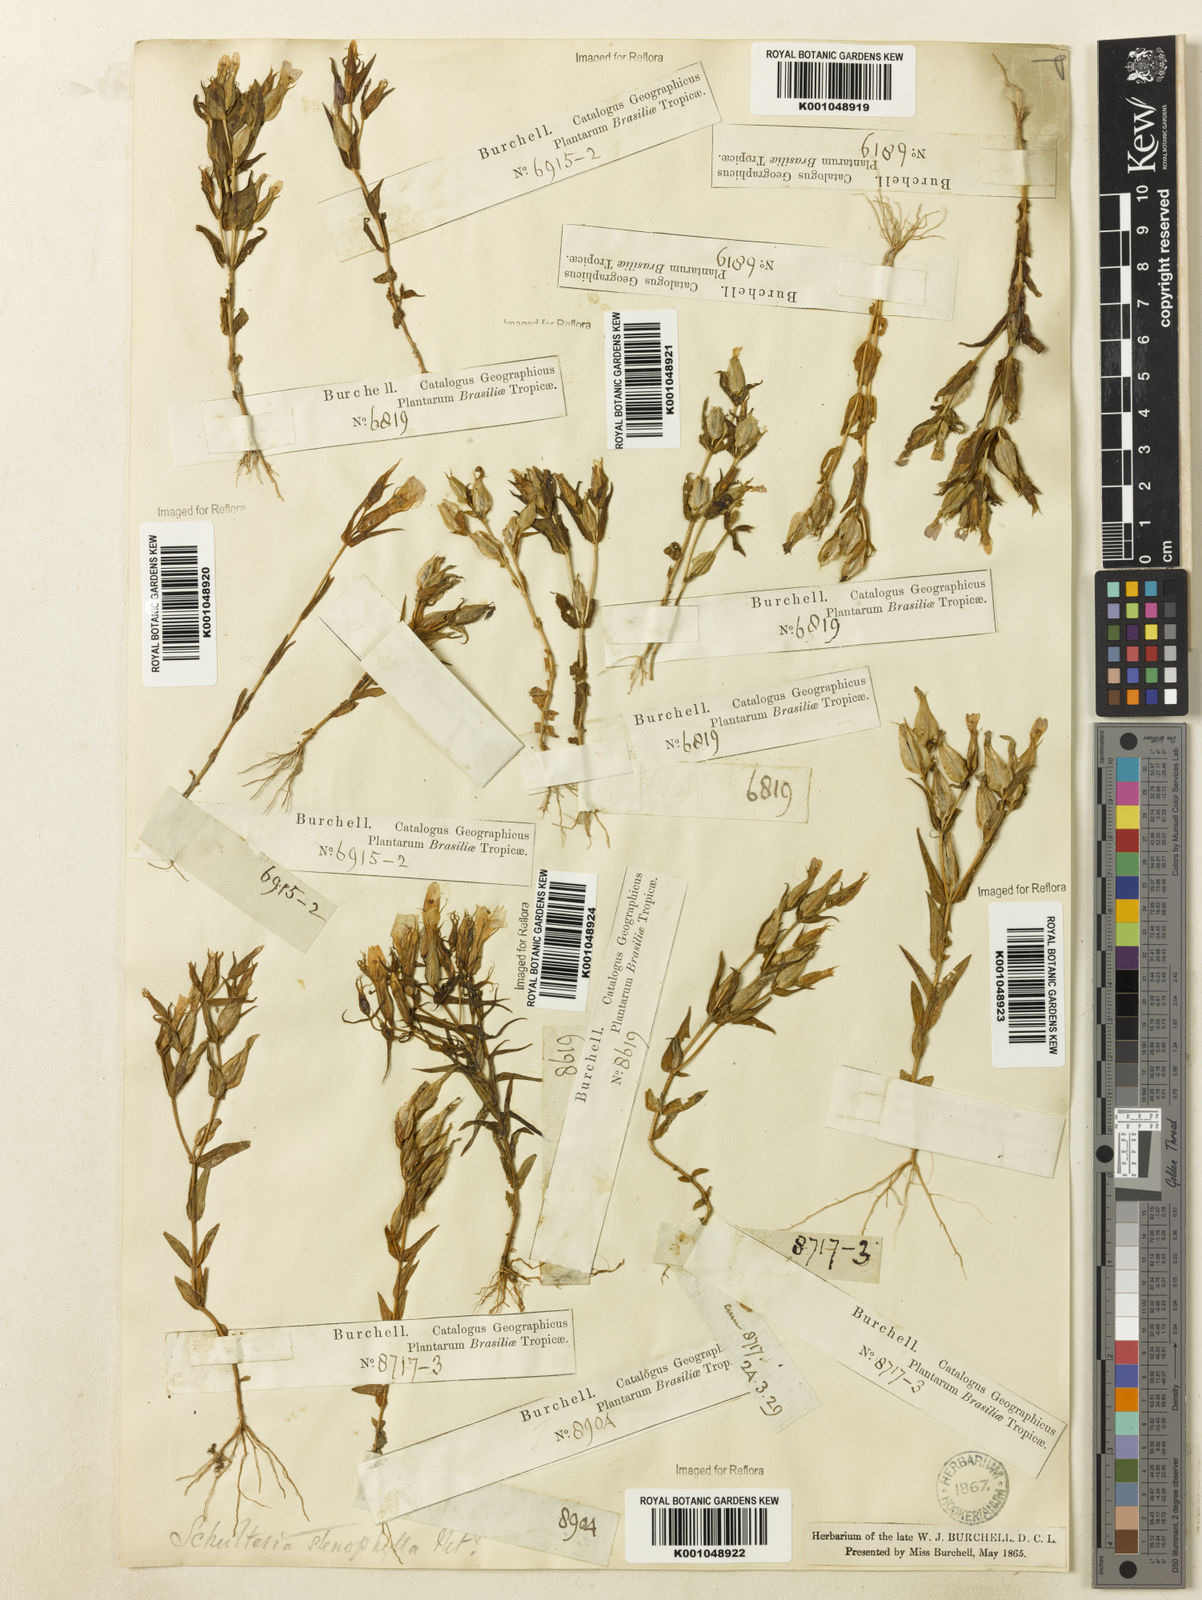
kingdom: Plantae
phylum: Tracheophyta
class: Magnoliopsida
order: Gentianales
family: Gentianaceae
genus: Schultesia
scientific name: Schultesia
